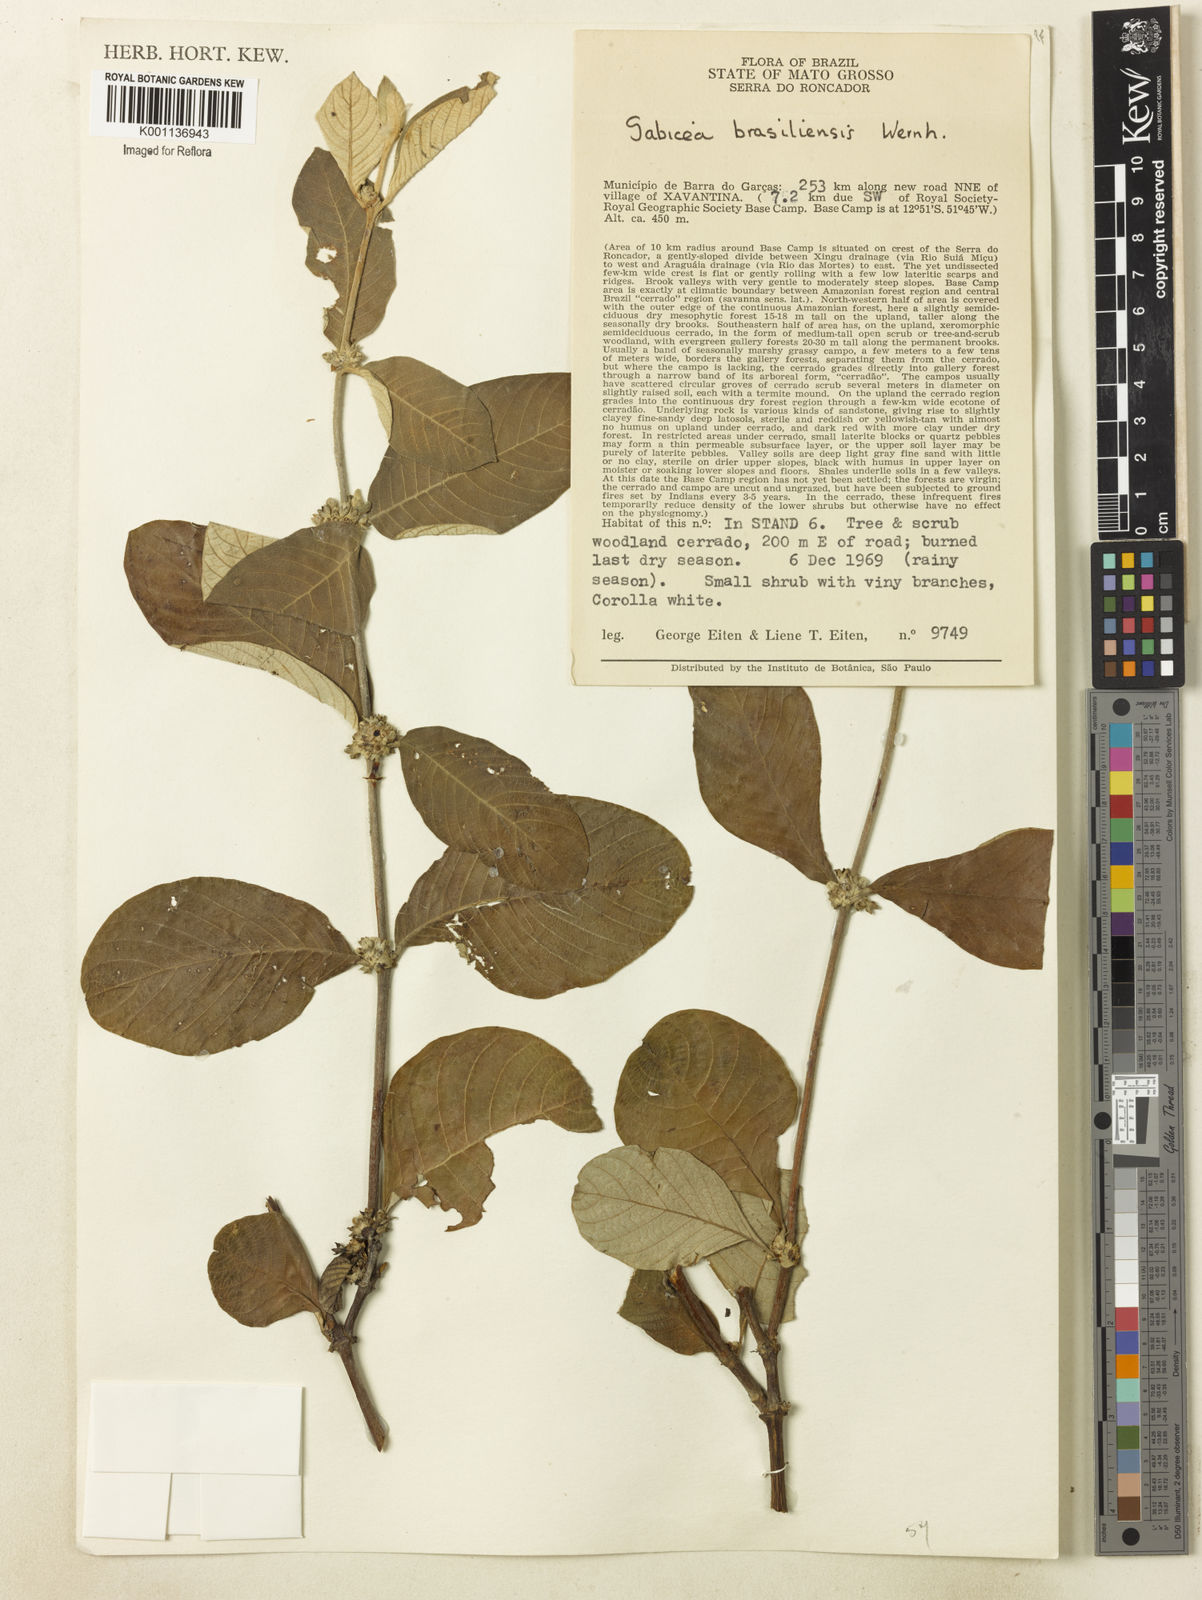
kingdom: Plantae
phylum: Tracheophyta
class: Magnoliopsida
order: Gentianales
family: Rubiaceae
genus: Sabicea
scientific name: Sabicea brasiliensis
